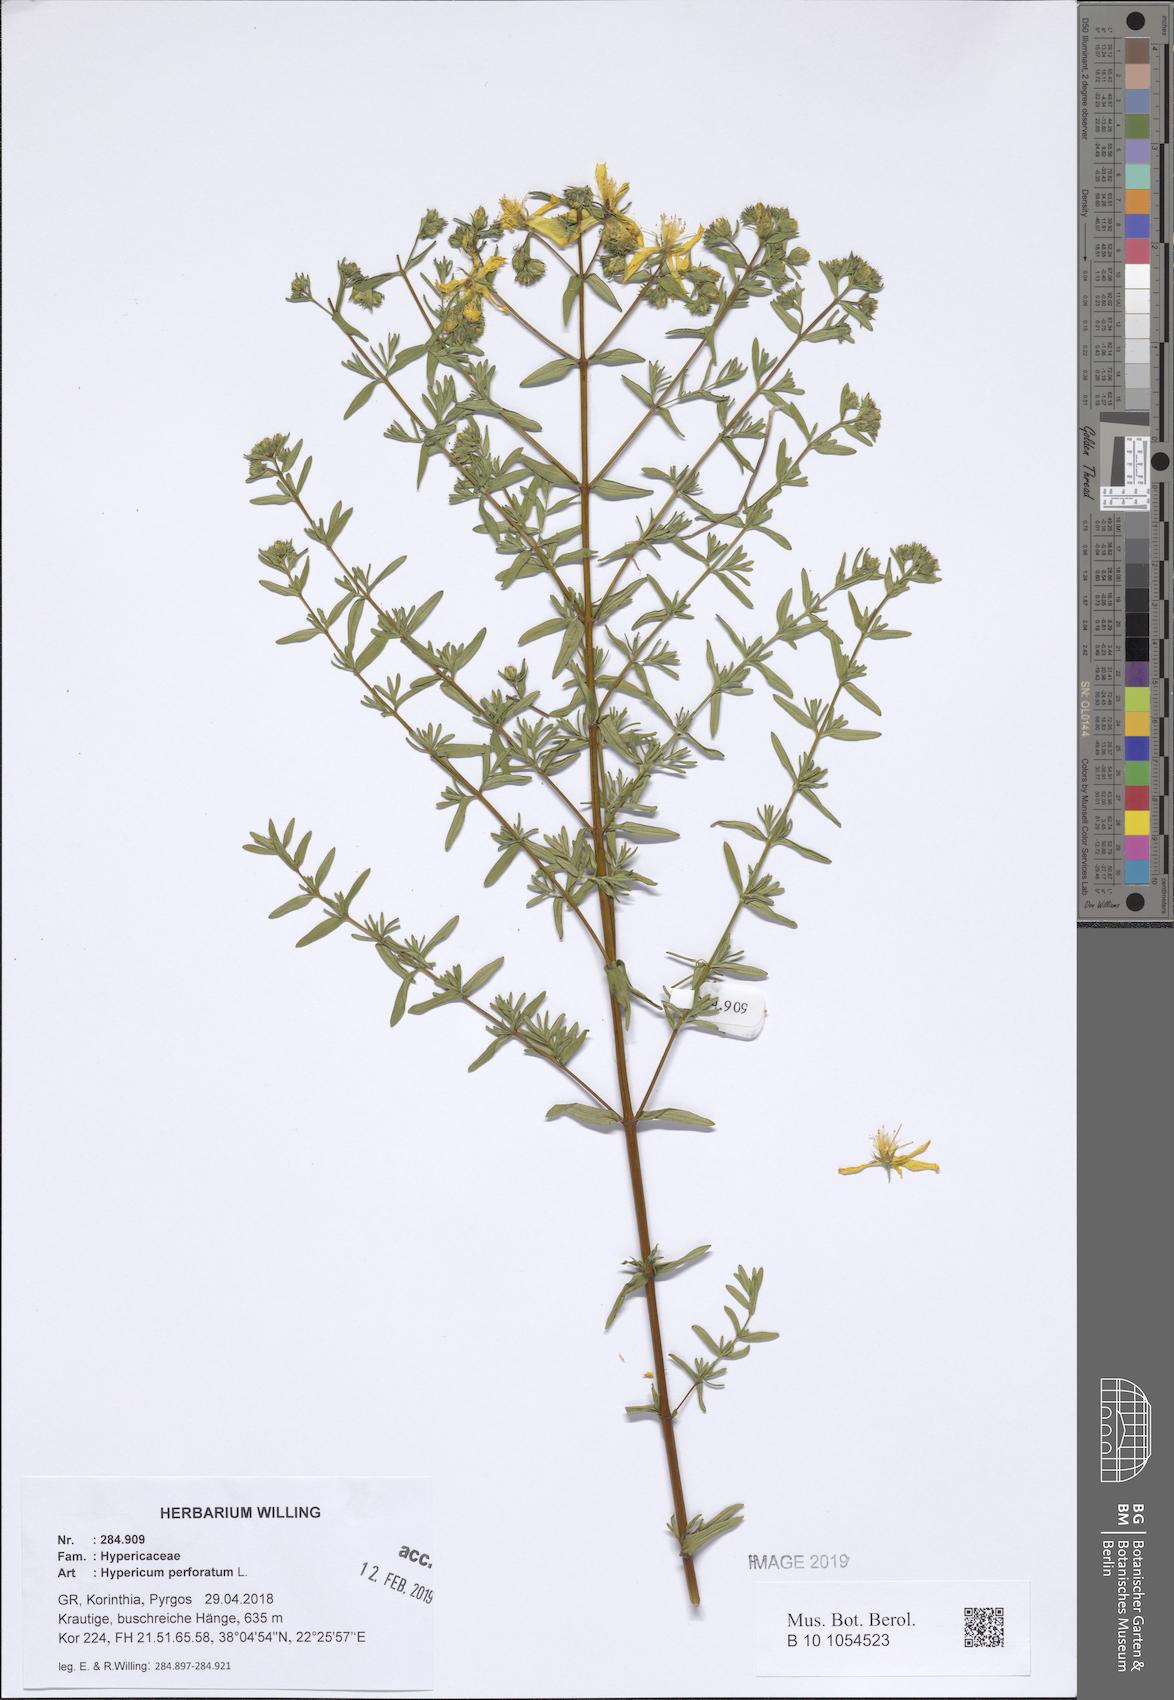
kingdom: Plantae
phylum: Tracheophyta
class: Magnoliopsida
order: Malpighiales
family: Hypericaceae
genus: Hypericum
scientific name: Hypericum perforatum
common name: Common st. johnswort
